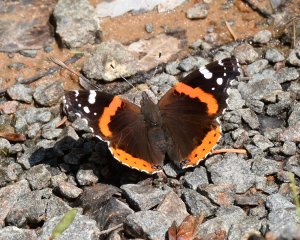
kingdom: Animalia
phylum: Arthropoda
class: Insecta
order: Lepidoptera
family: Nymphalidae
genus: Vanessa
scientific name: Vanessa atalanta
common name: Red Admiral
